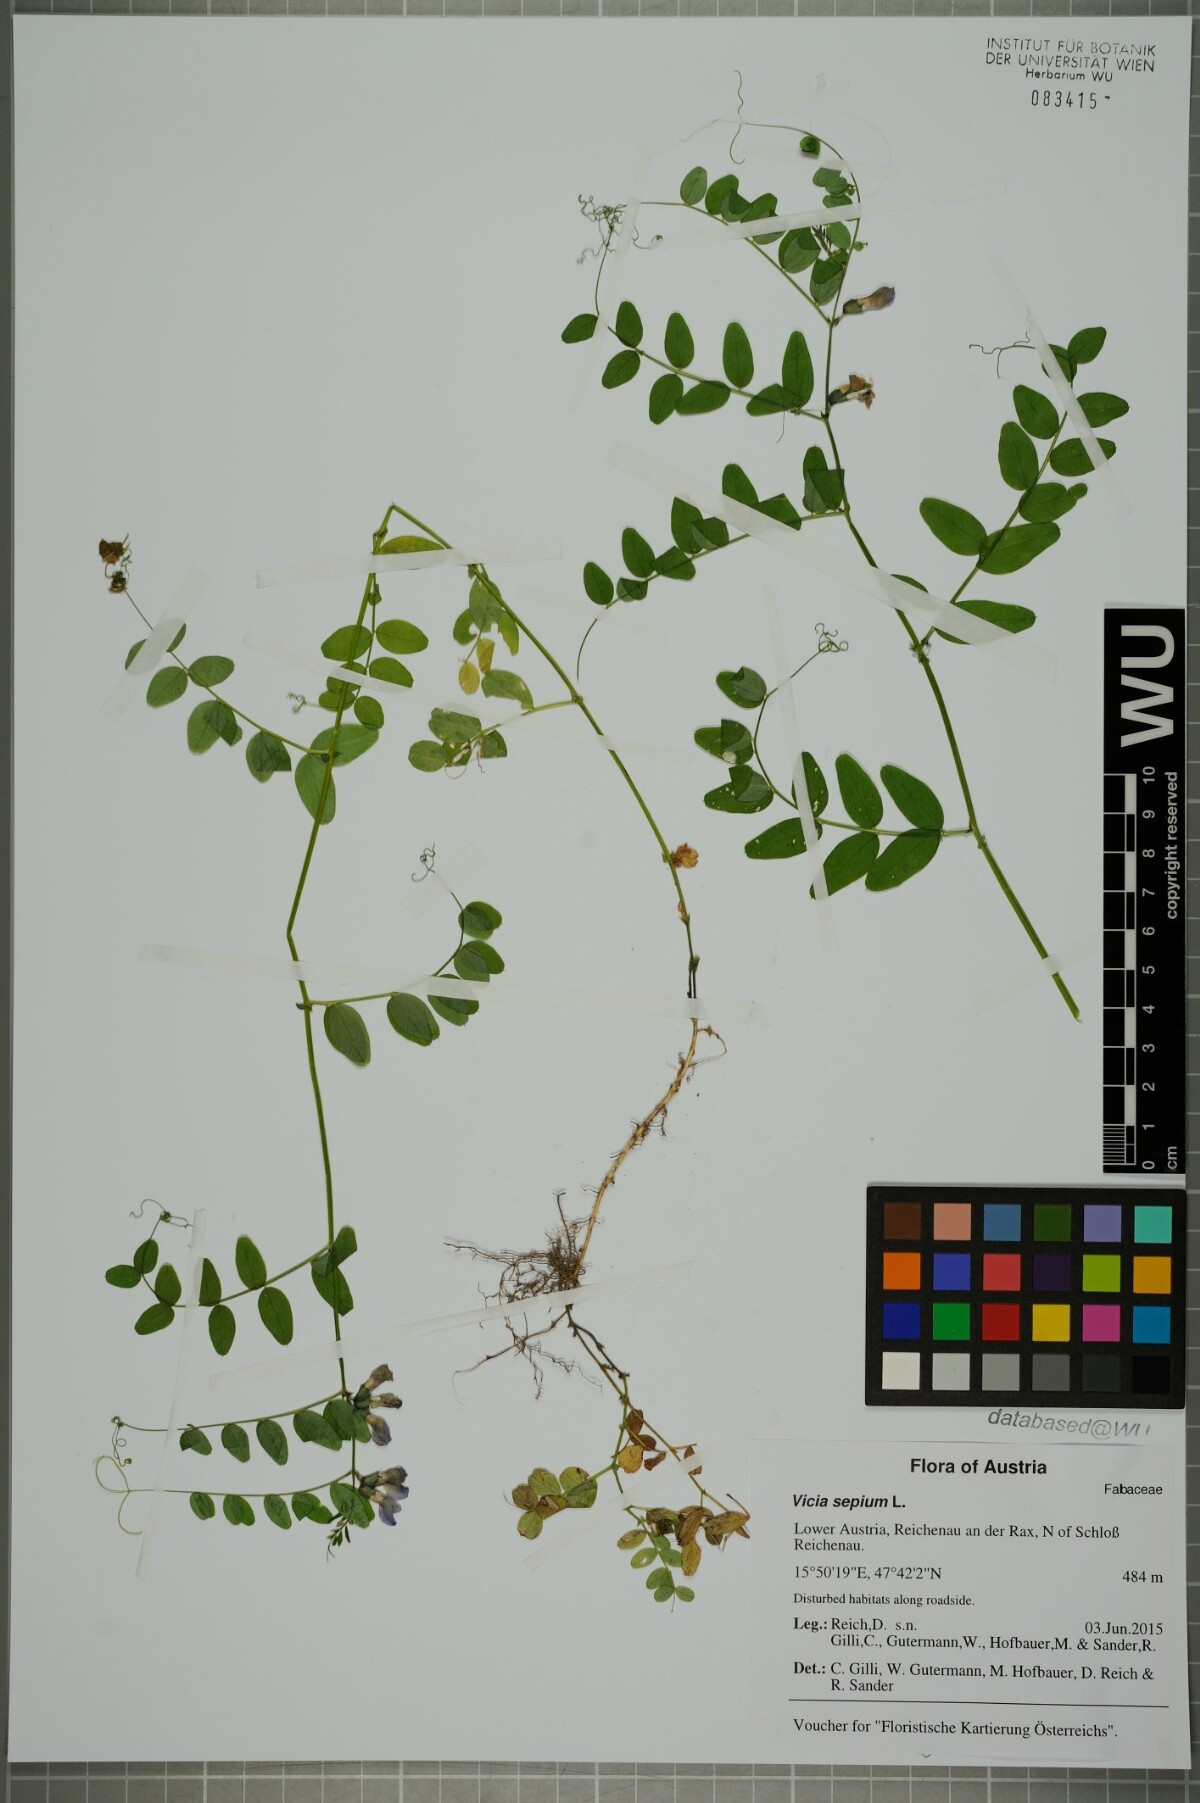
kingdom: Plantae
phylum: Tracheophyta
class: Magnoliopsida
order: Fabales
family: Fabaceae
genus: Vicia
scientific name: Vicia sepium
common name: Bush vetch
